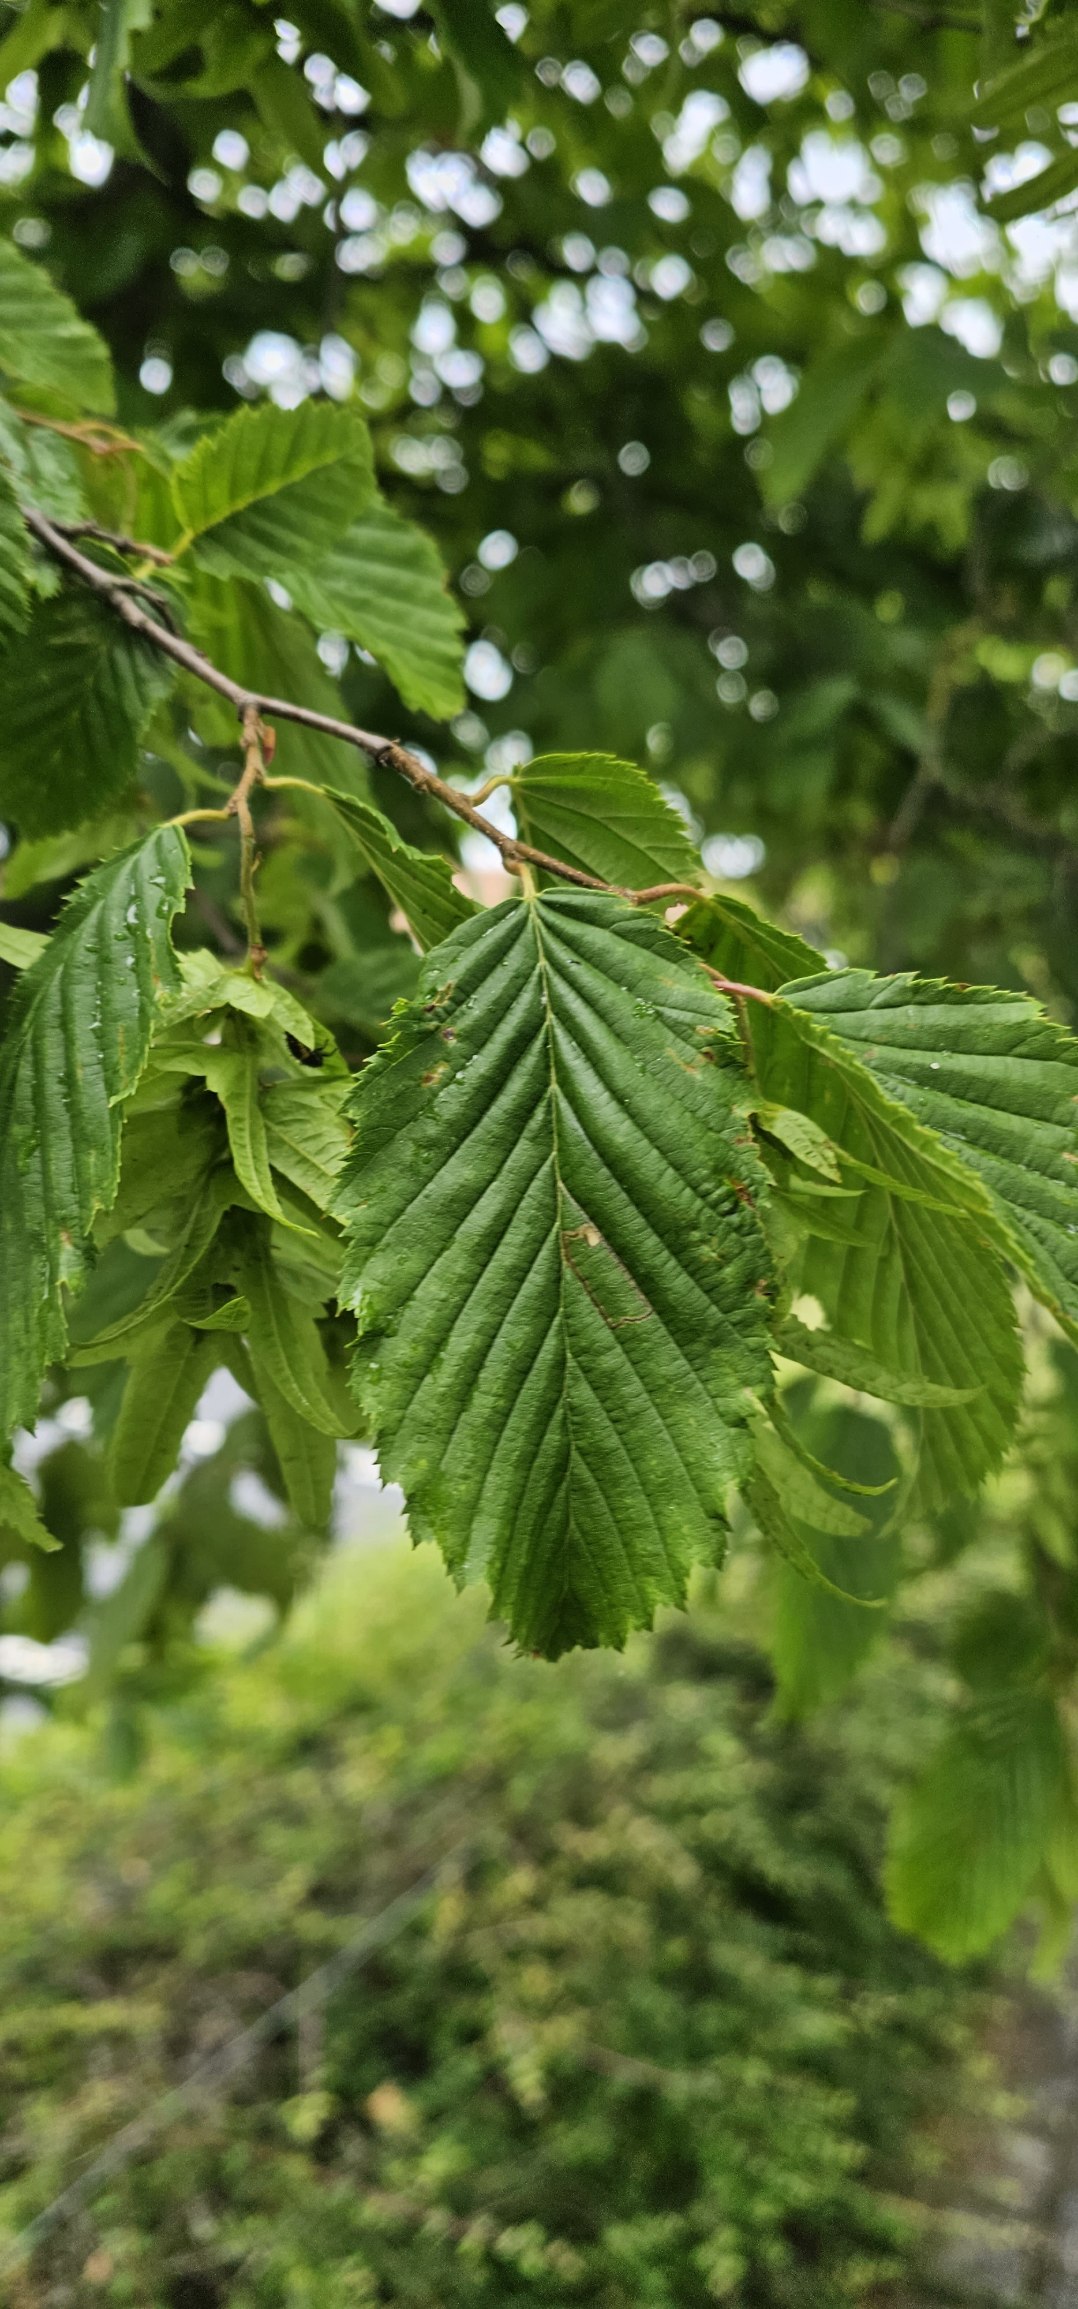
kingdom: Plantae
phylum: Tracheophyta
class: Magnoliopsida
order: Fagales
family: Betulaceae
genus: Carpinus
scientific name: Carpinus betulus
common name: Avnbøg
